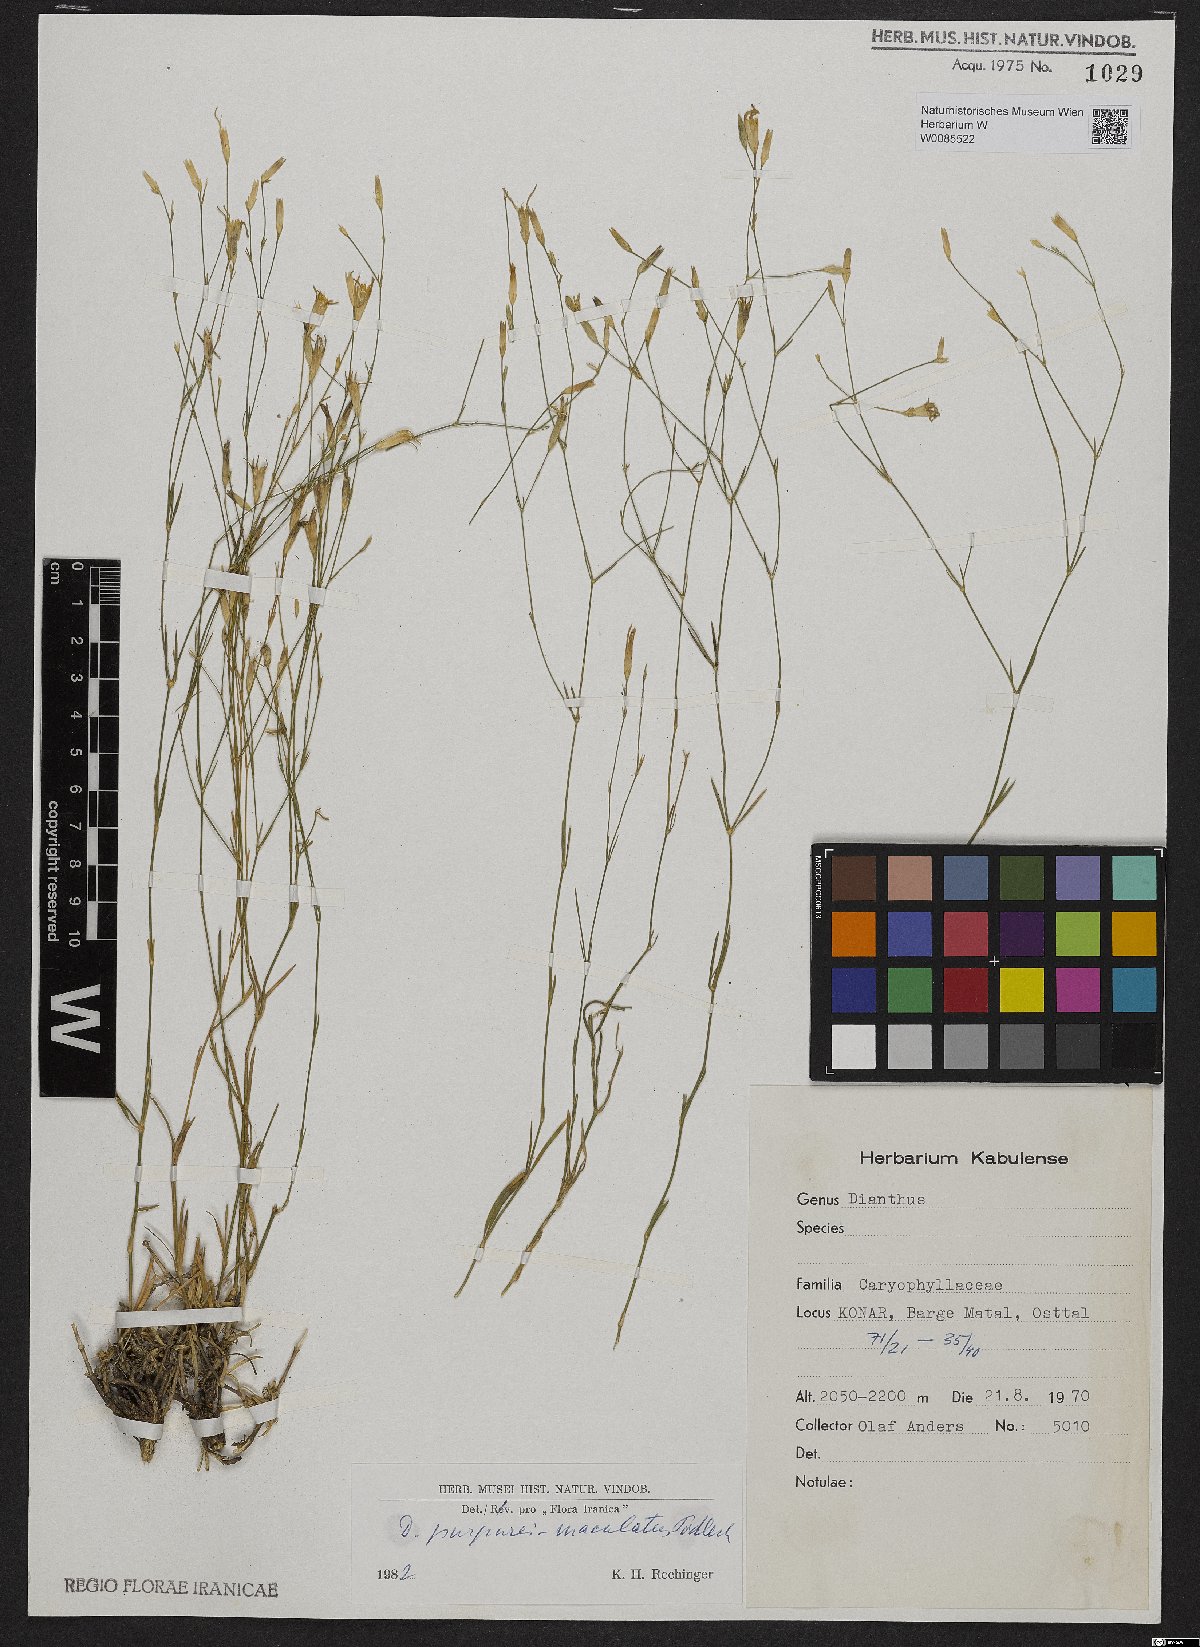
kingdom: Plantae
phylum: Tracheophyta
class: Magnoliopsida
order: Caryophyllales
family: Caryophyllaceae
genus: Dianthus
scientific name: Dianthus purpureimaculatus
